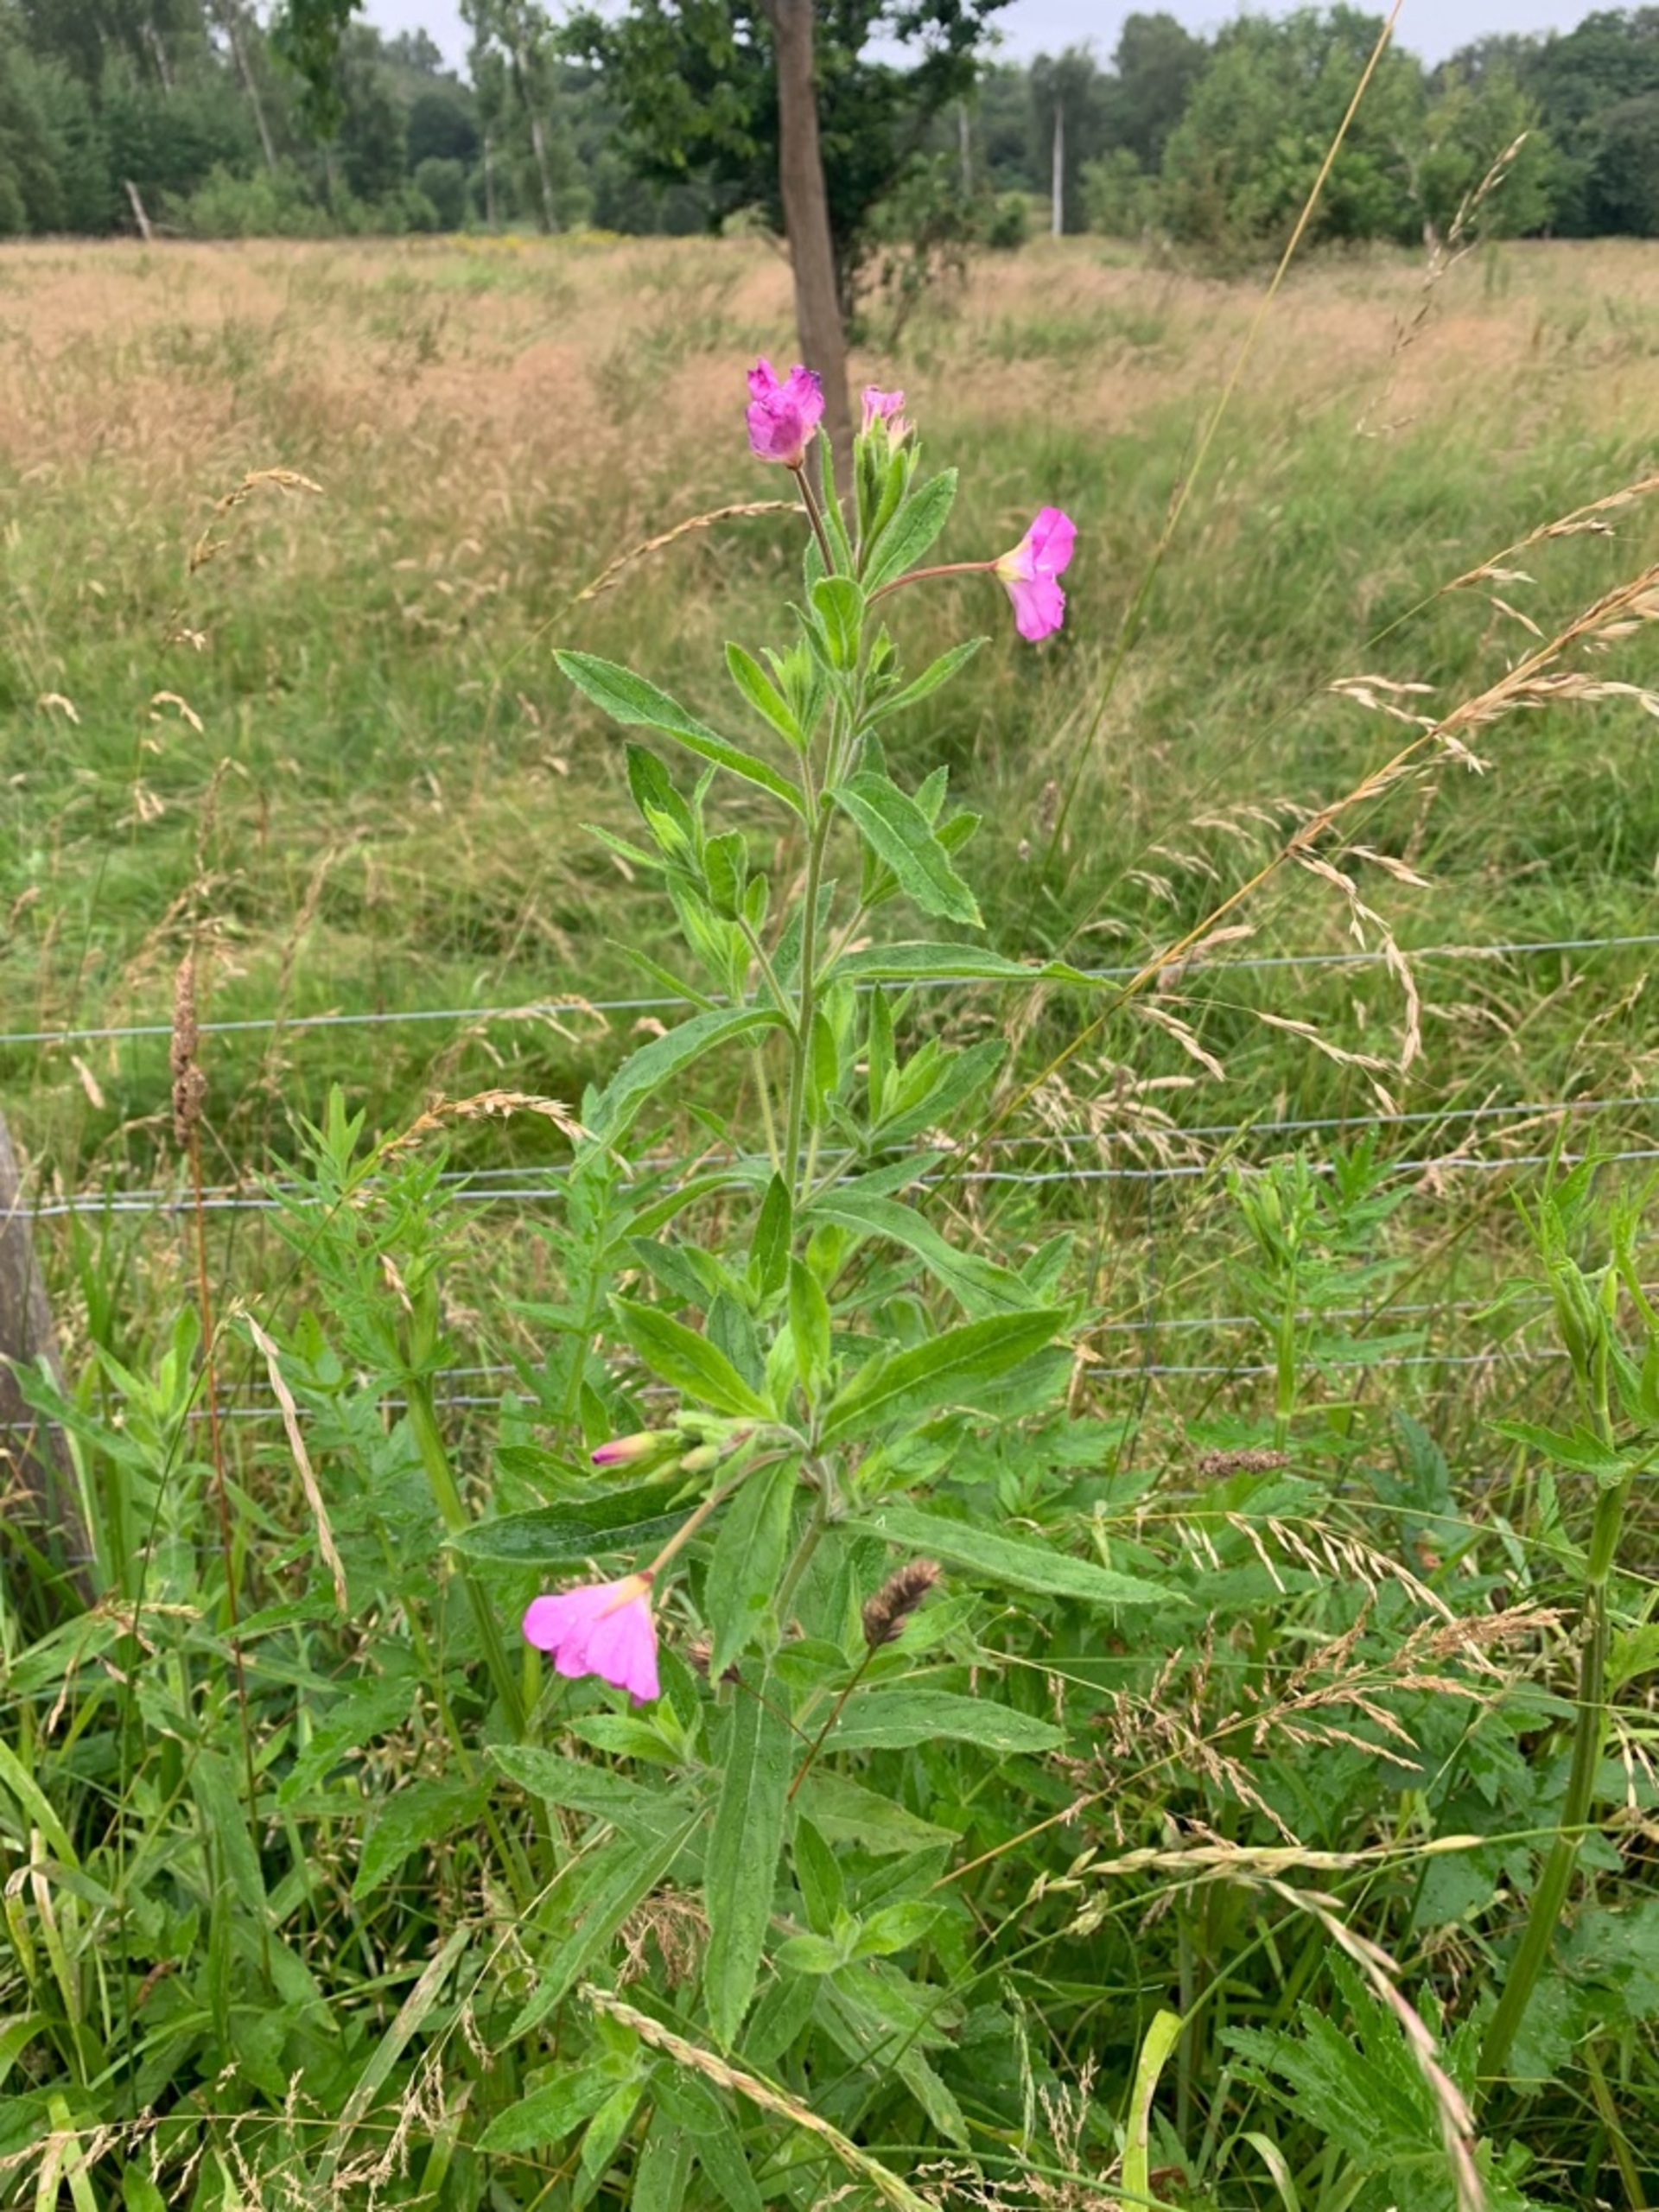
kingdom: Plantae
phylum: Tracheophyta
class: Magnoliopsida
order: Myrtales
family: Onagraceae
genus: Epilobium
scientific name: Epilobium hirsutum
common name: Lådden dueurt
